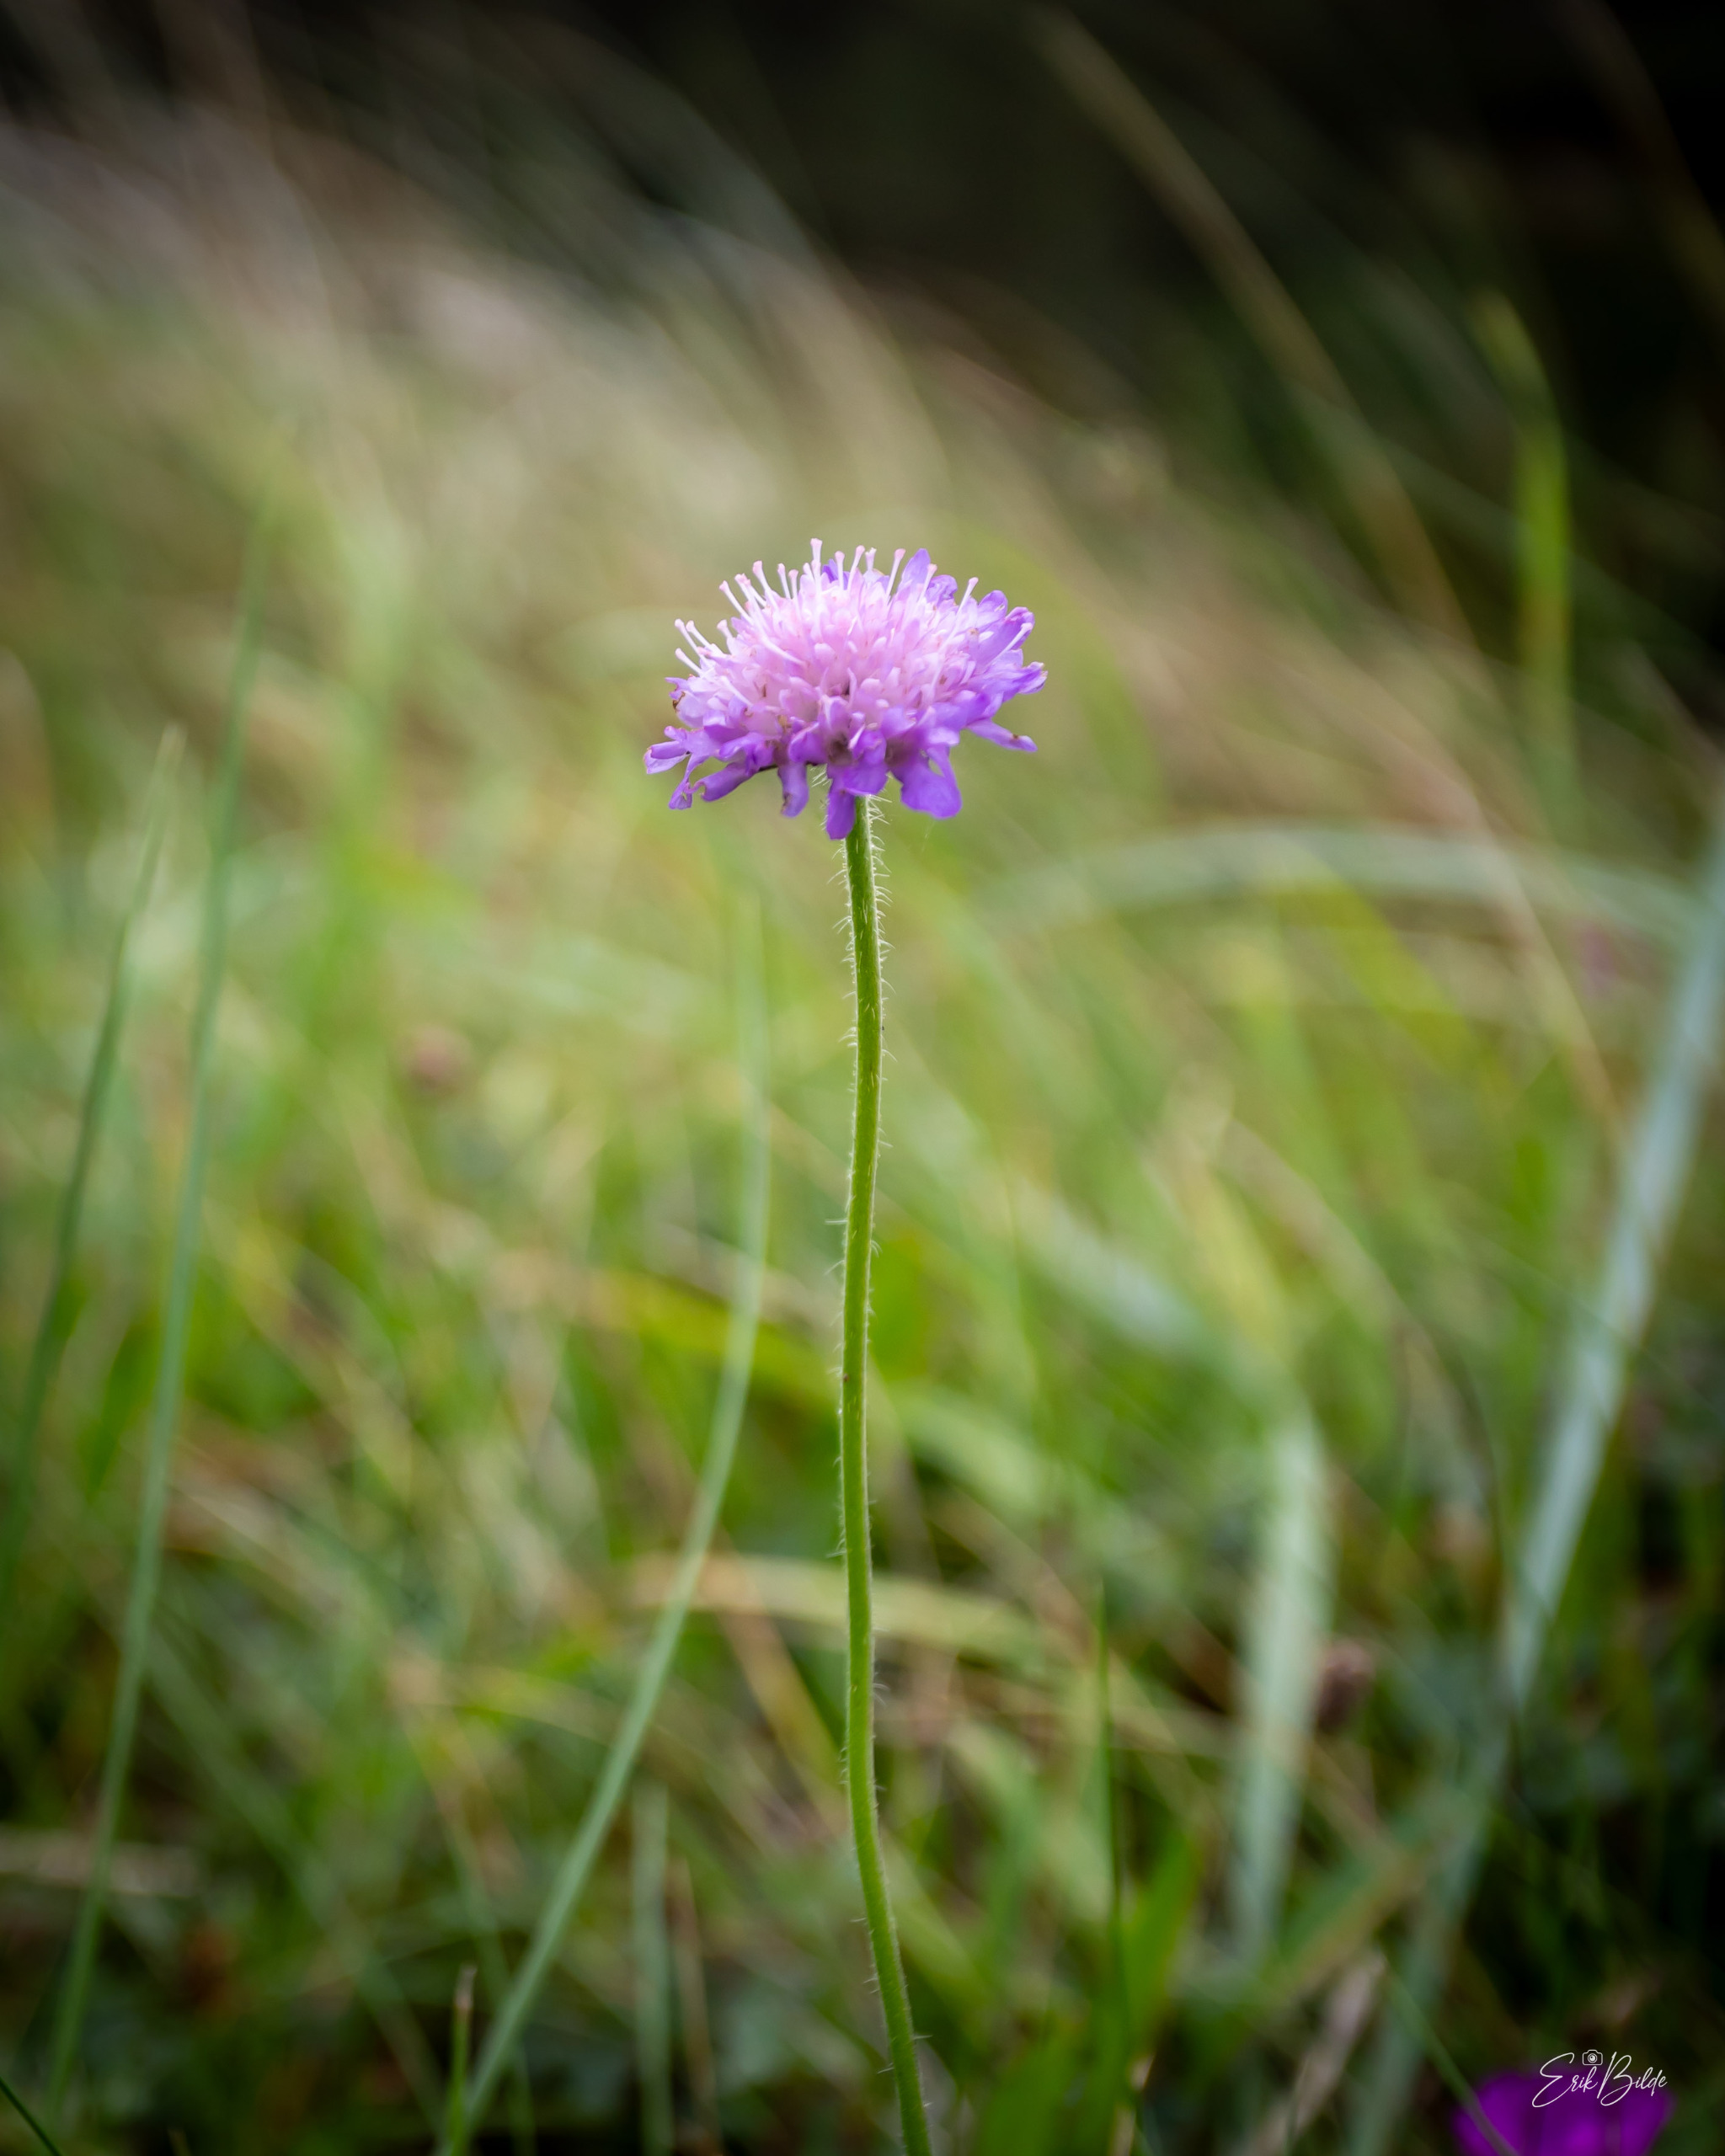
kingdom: Plantae
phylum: Tracheophyta
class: Magnoliopsida
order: Dipsacales
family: Caprifoliaceae
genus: Knautia
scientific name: Knautia arvensis
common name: Blåhat
